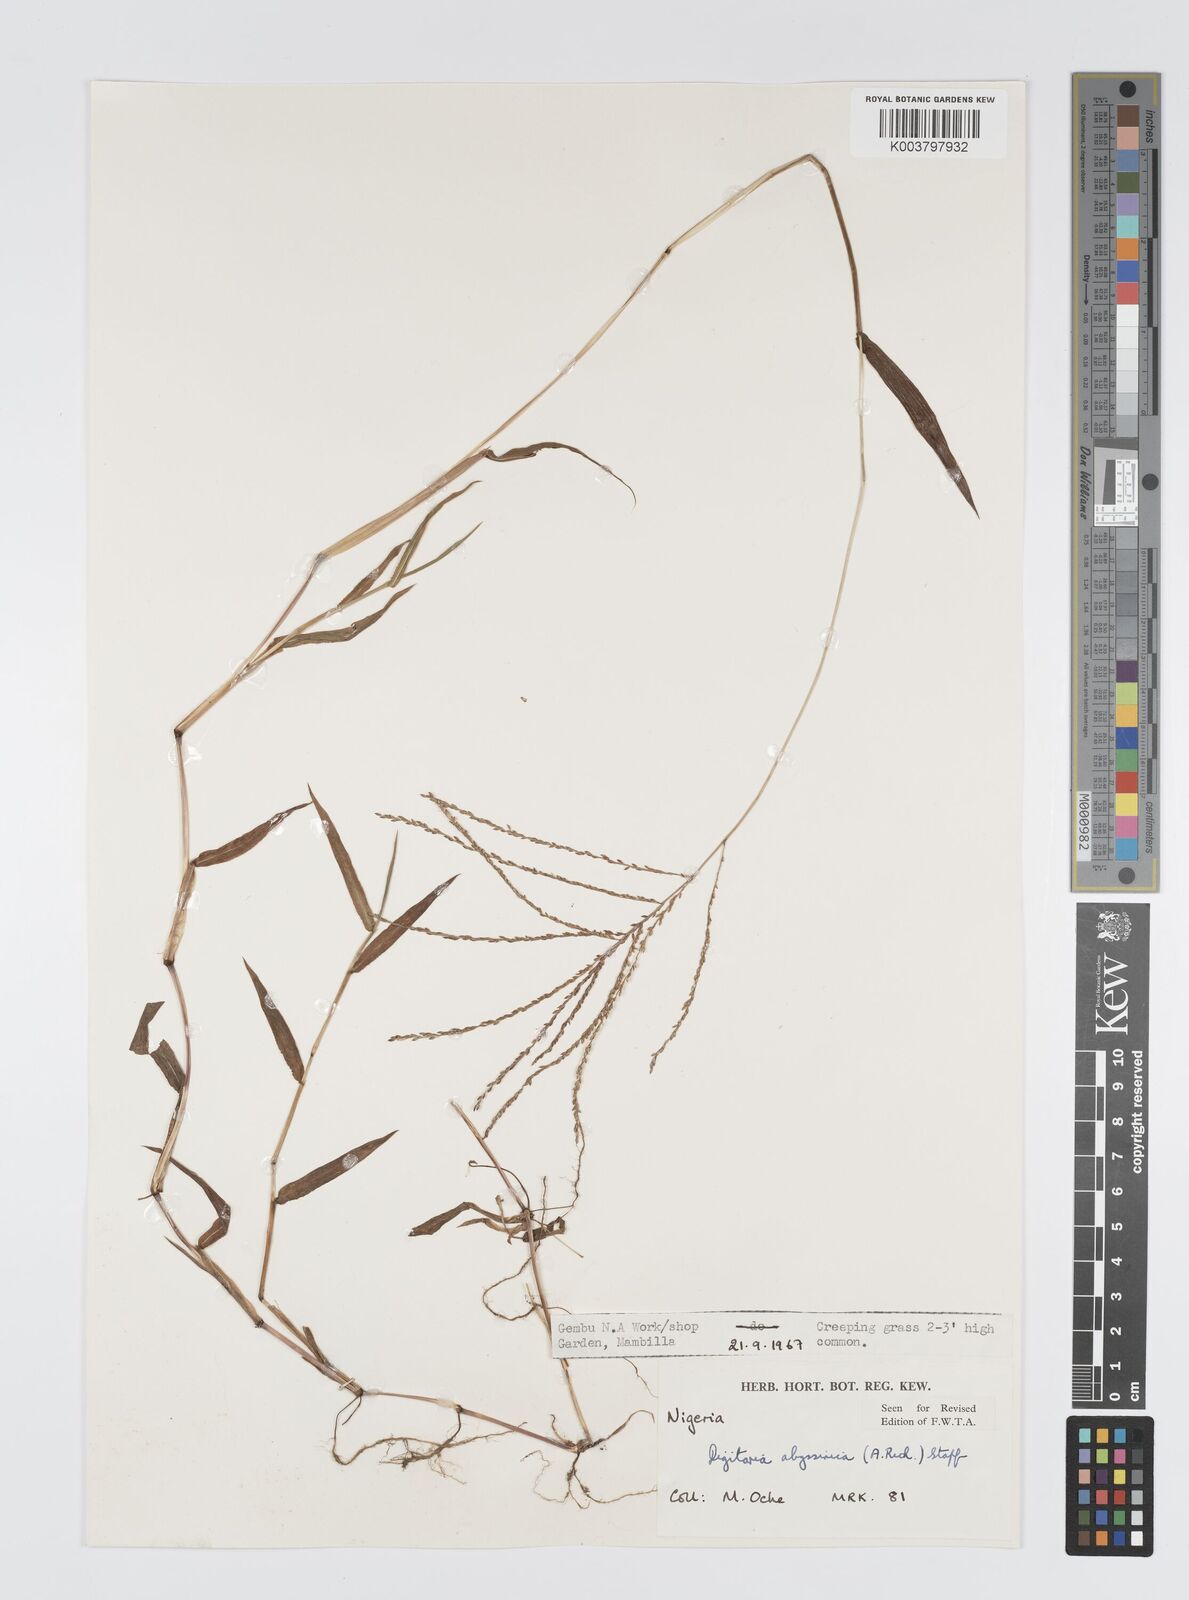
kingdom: Plantae
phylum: Tracheophyta
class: Liliopsida
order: Poales
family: Poaceae
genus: Digitaria
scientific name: Digitaria abyssinica
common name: African couchgrass
